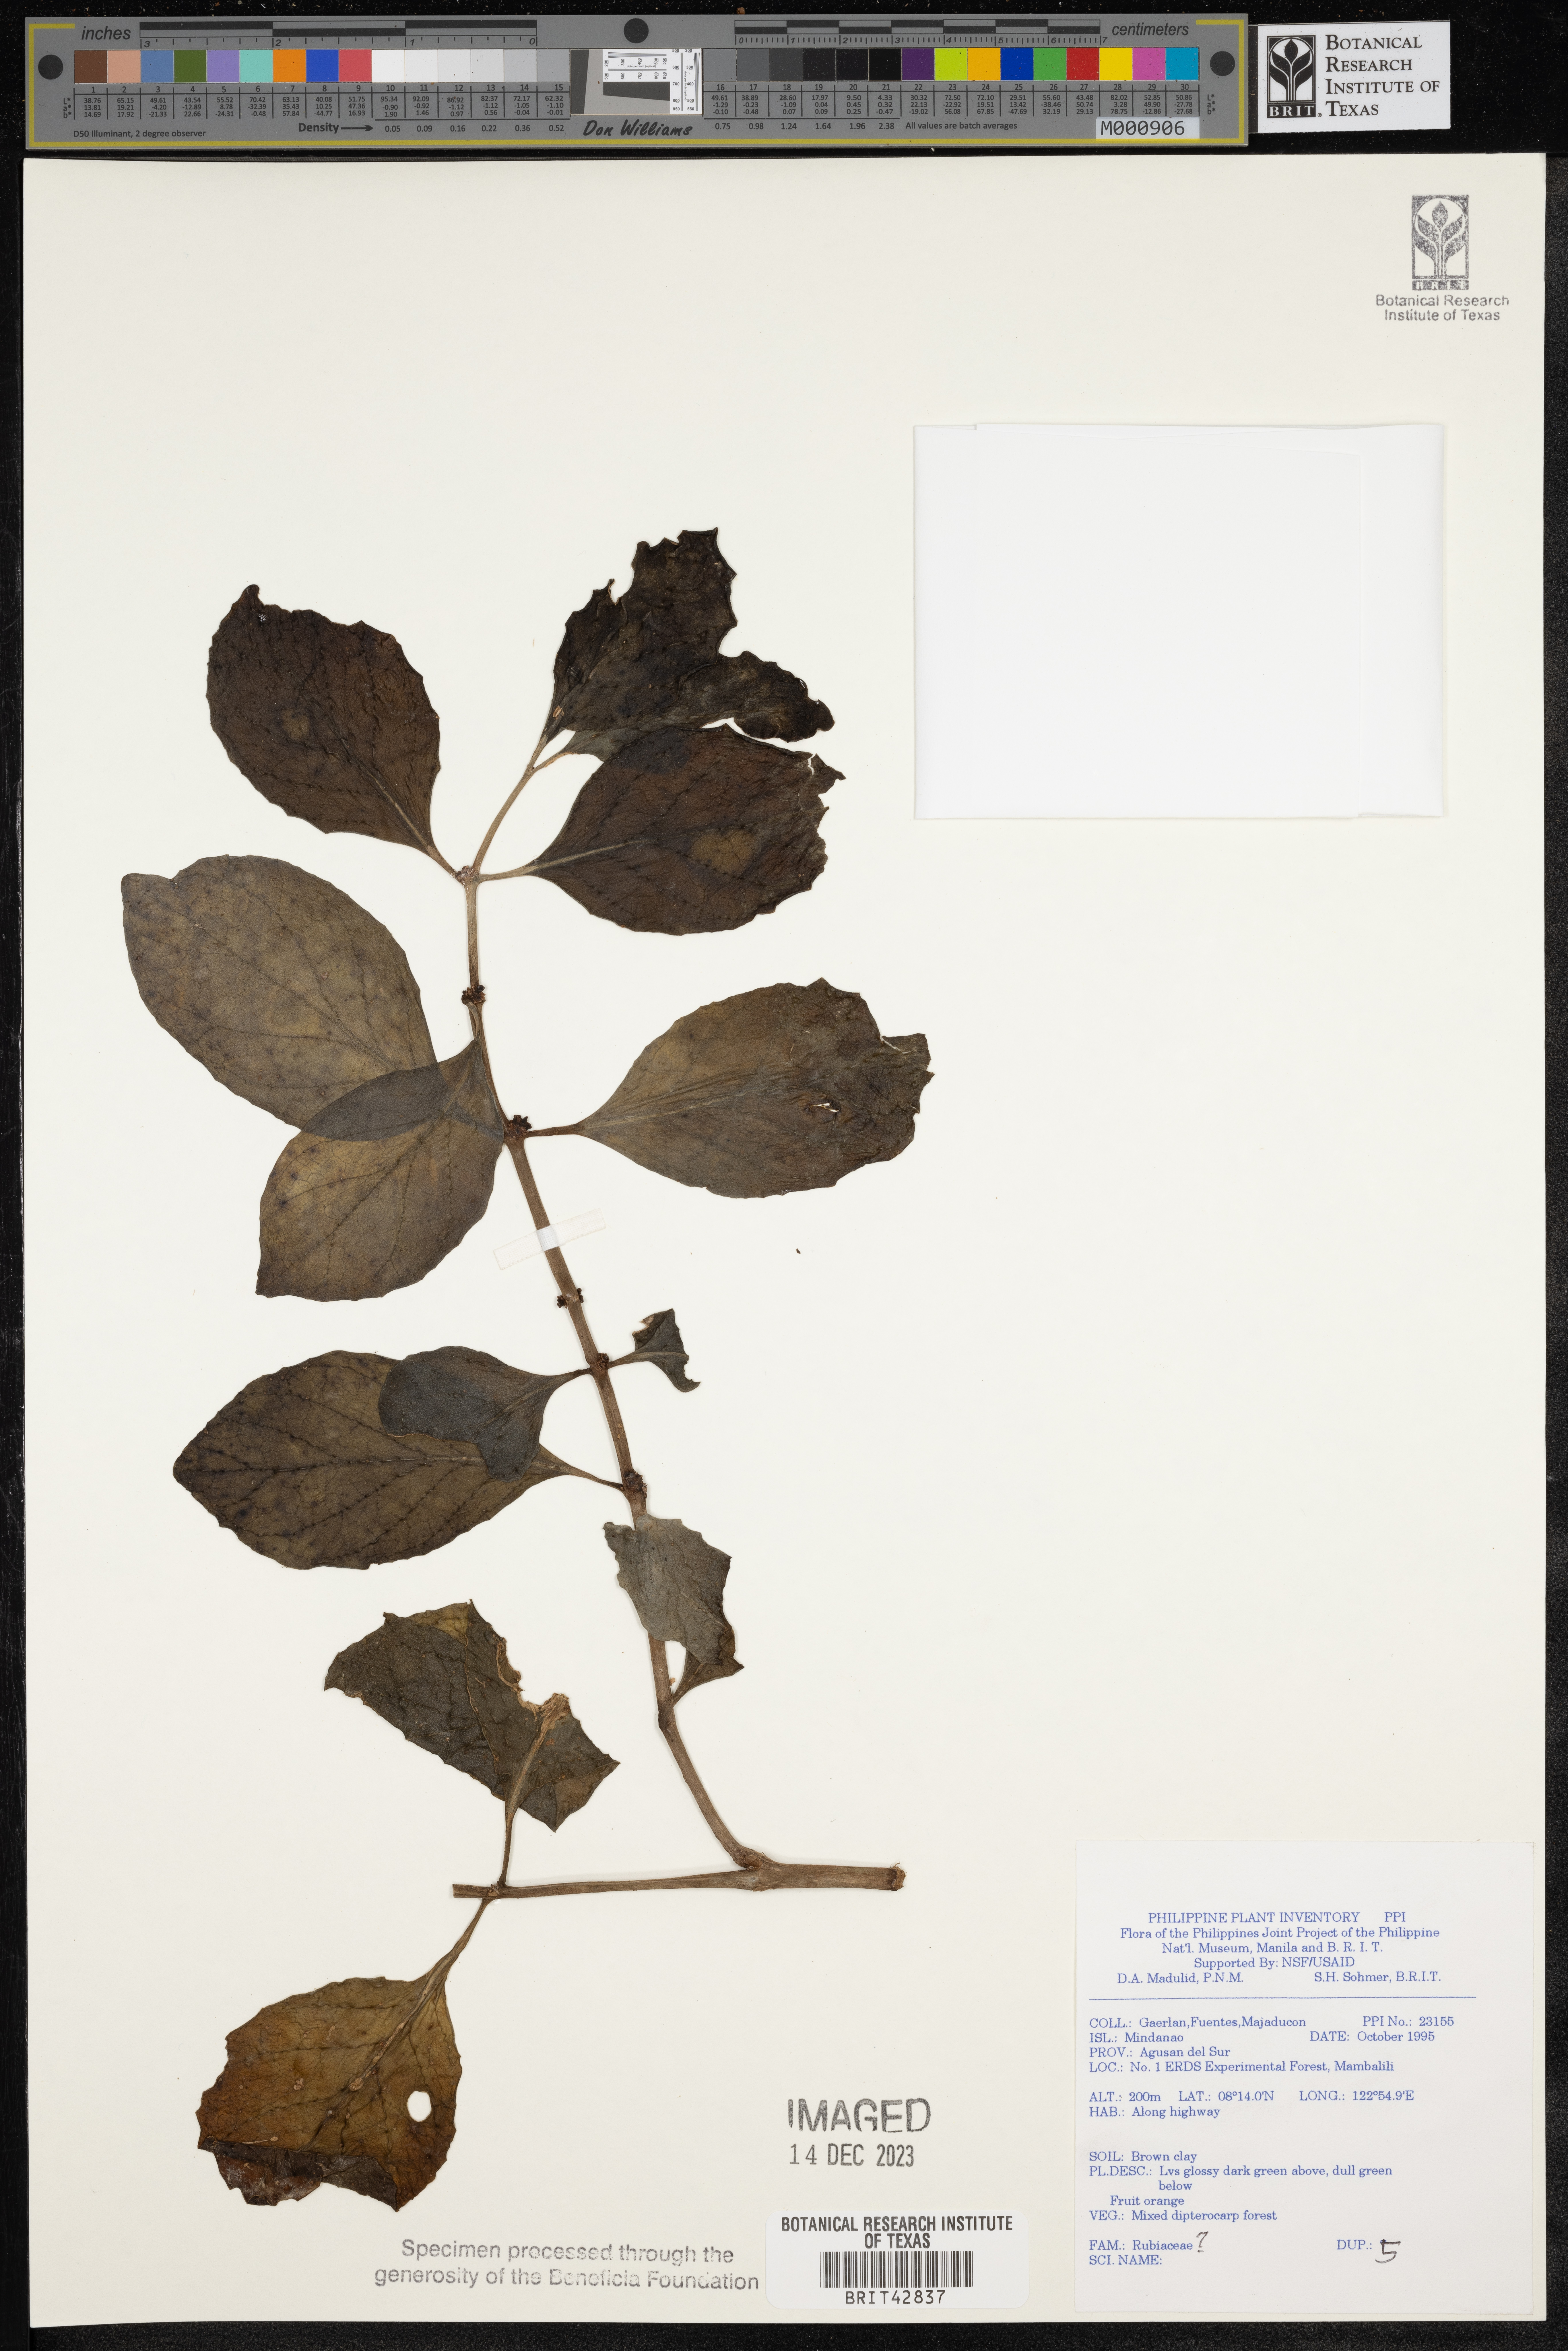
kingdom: Plantae
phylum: Tracheophyta
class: Magnoliopsida
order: Gentianales
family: Rubiaceae
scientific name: Rubiaceae
